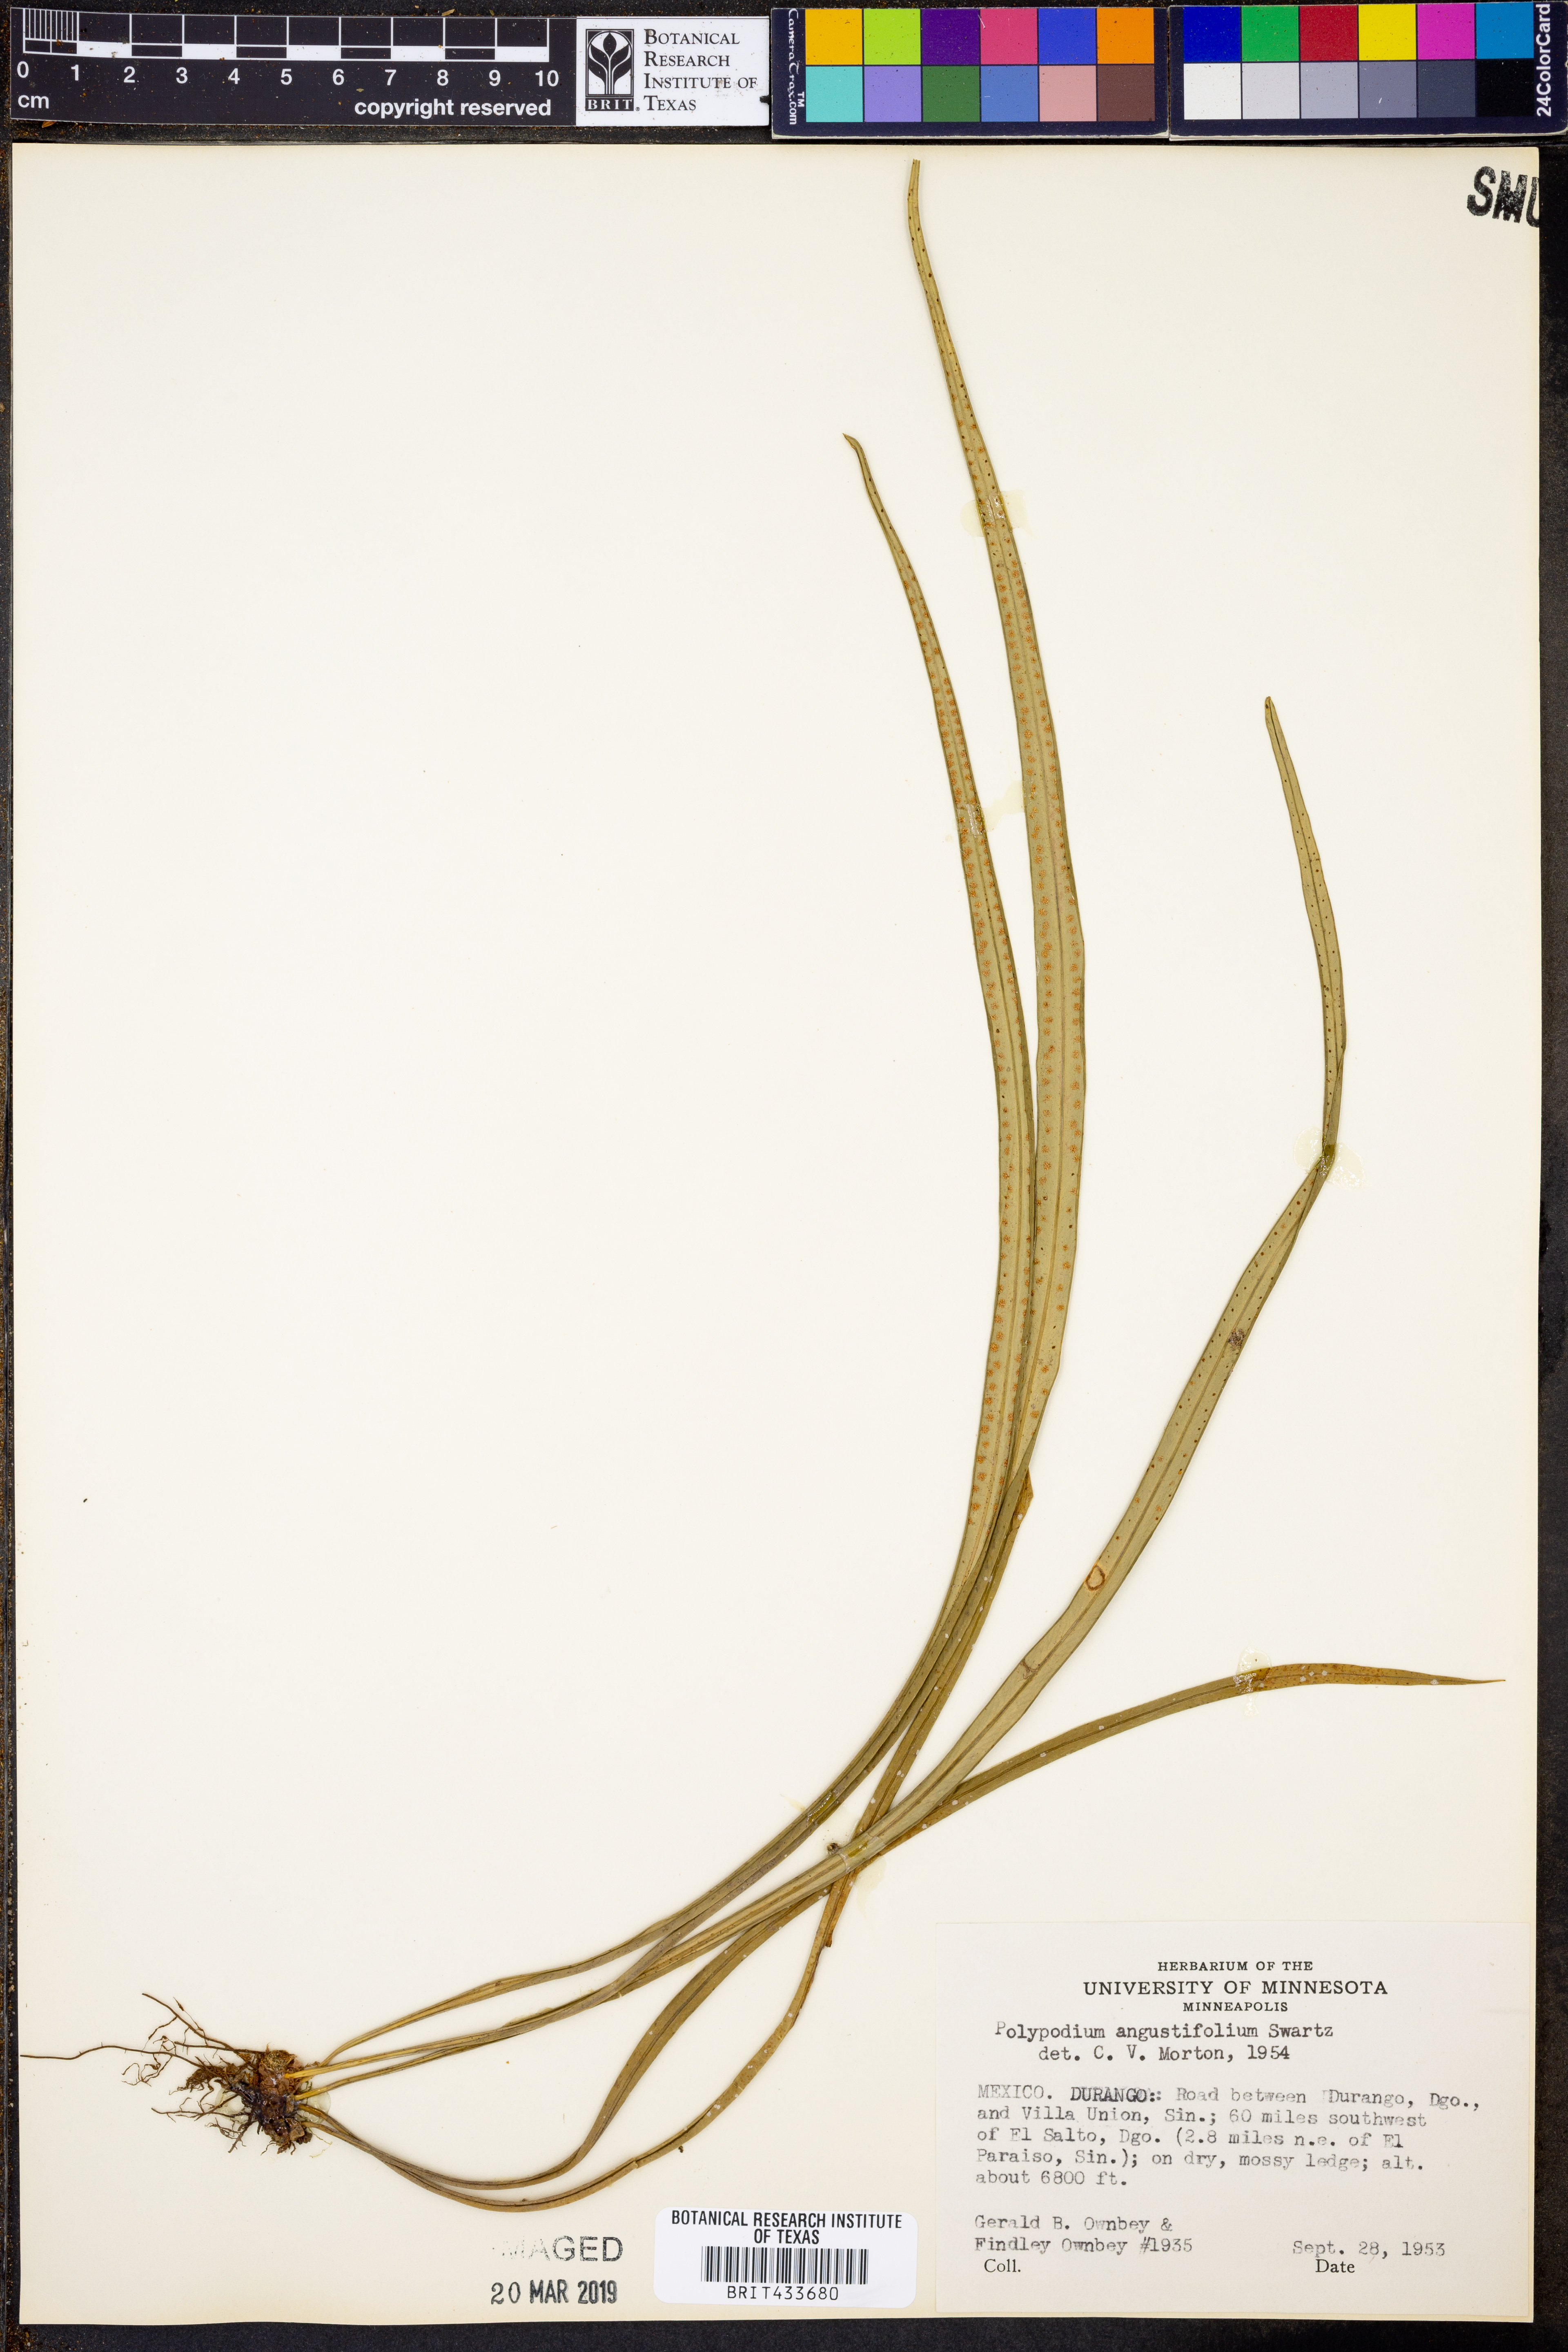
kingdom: Plantae
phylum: Tracheophyta
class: Polypodiopsida
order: Polypodiales
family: Polypodiaceae
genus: Campyloneurum
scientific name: Campyloneurum angustifolium
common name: Narrow-leaf strap fern
